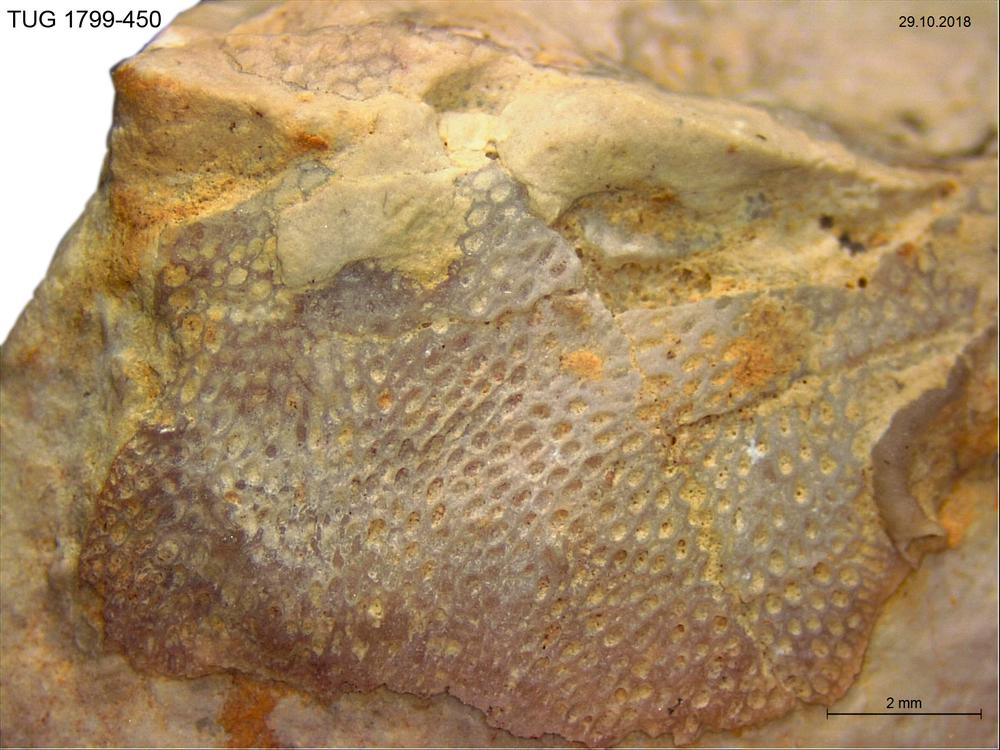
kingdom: Animalia
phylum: Bryozoa
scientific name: Bryozoa
